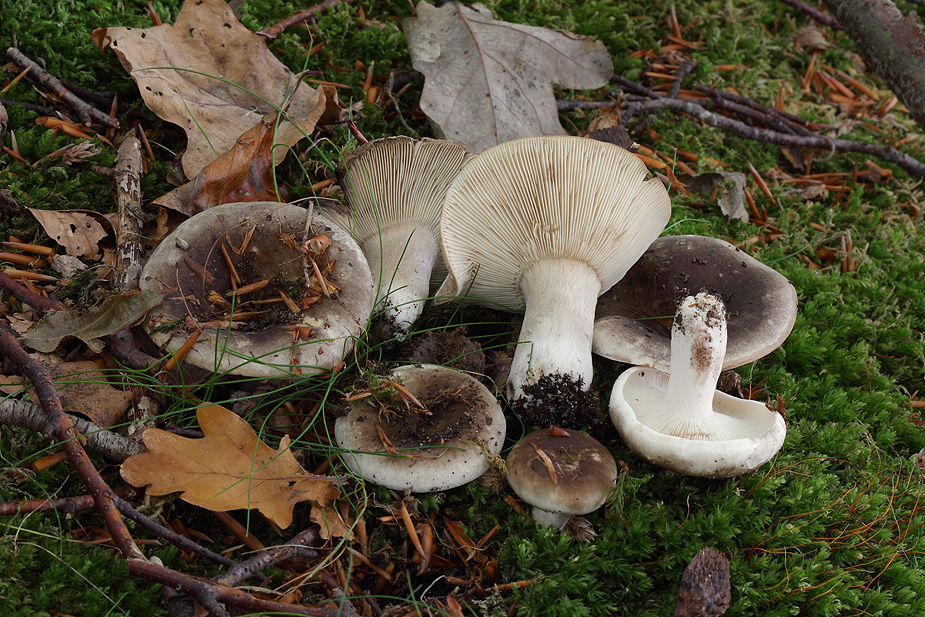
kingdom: Fungi
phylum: Basidiomycota
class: Agaricomycetes
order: Russulales
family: Russulaceae
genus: Russula
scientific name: Russula densifolia
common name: tætbladet skørhat
